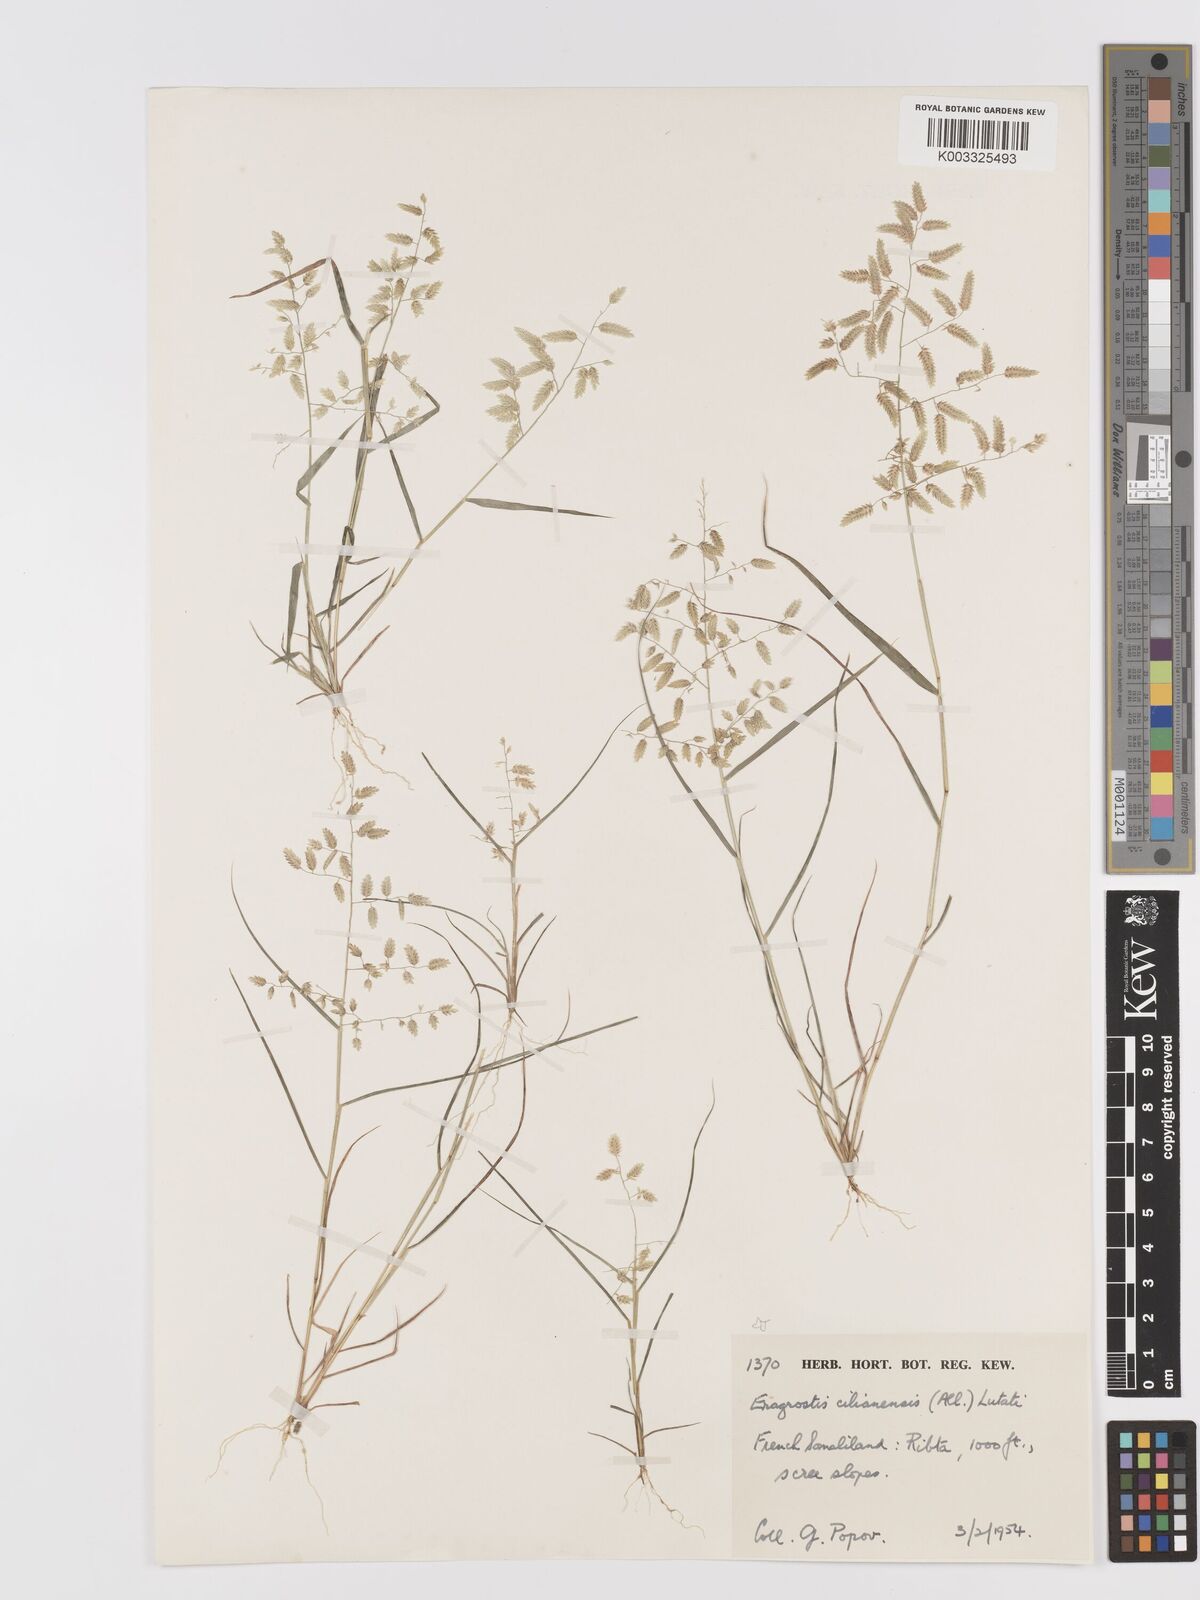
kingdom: Plantae
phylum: Tracheophyta
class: Liliopsida
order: Poales
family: Poaceae
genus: Eragrostis
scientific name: Eragrostis cilianensis
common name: Stinkgrass
